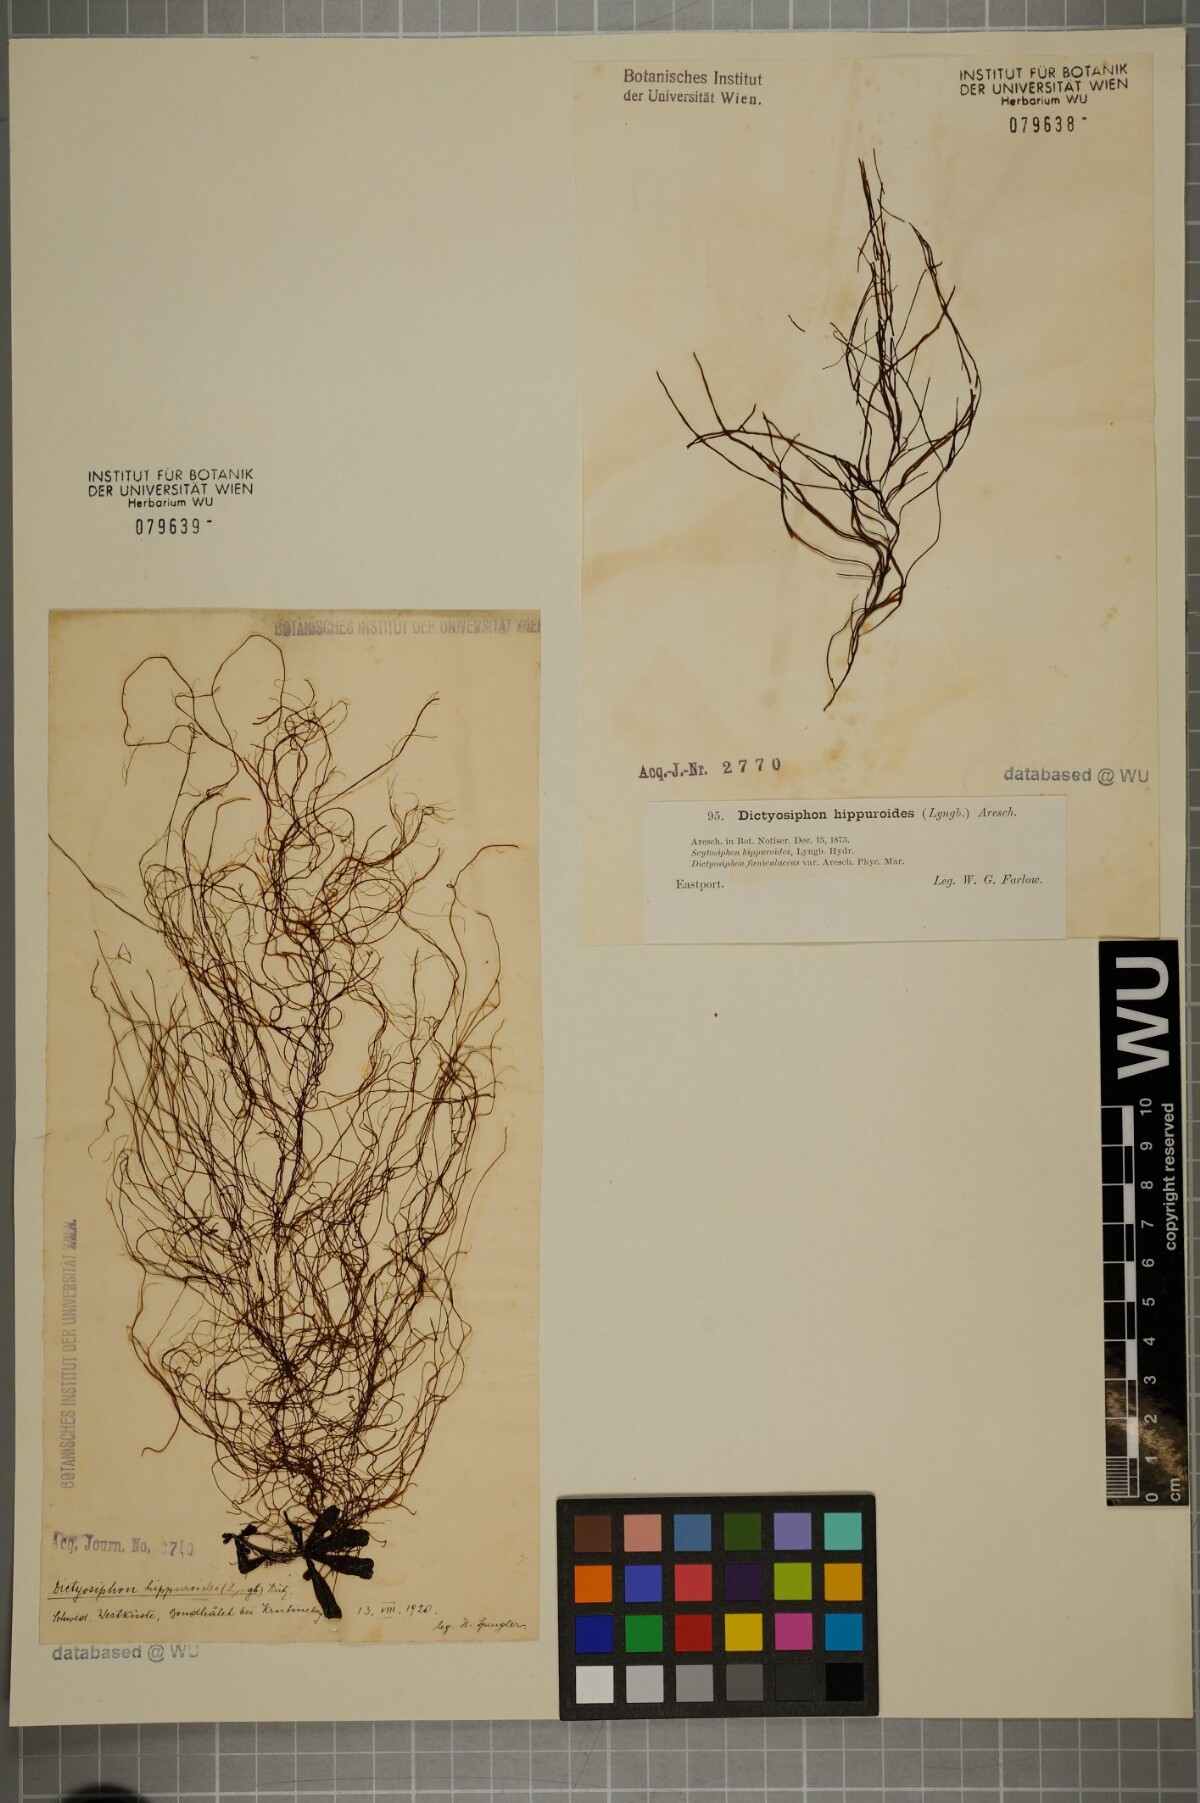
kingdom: Chromista
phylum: Ochrophyta
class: Phaeophyceae
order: Ectocarpales
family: Chordariaceae
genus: Dictyosiphon
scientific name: Dictyosiphon foeniculaceus
